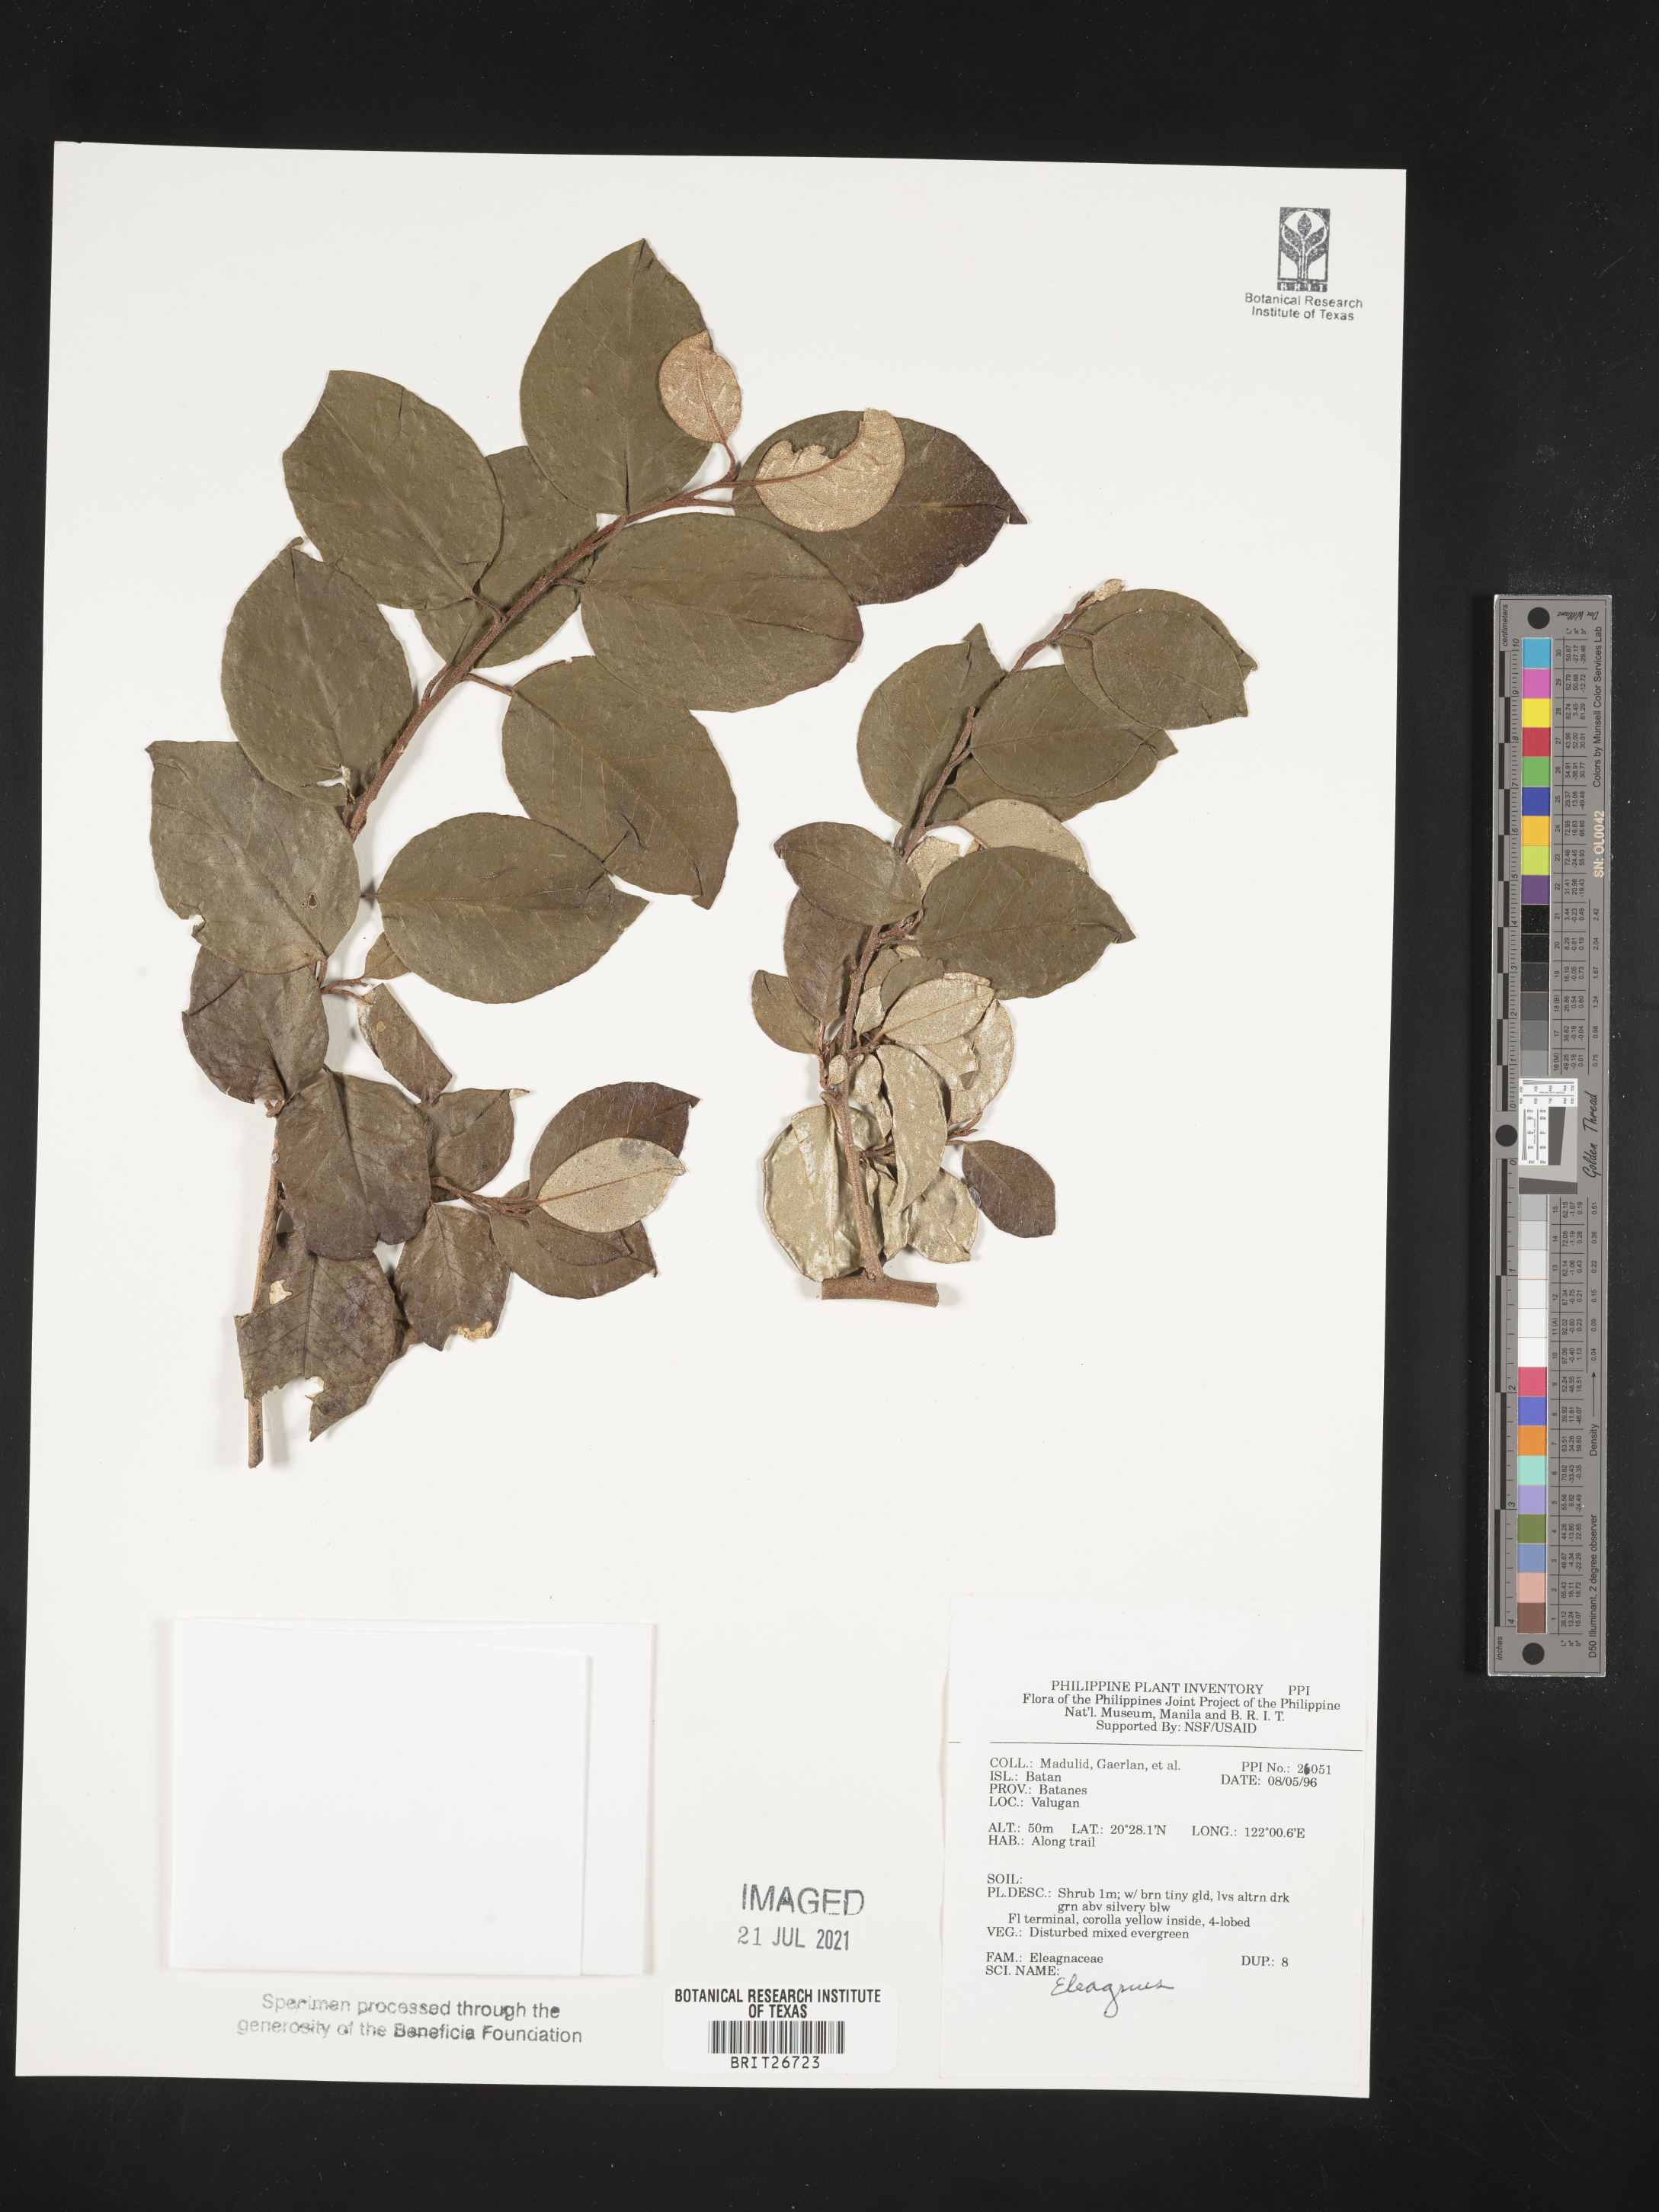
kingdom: Plantae
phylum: Tracheophyta
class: Magnoliopsida
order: Rosales
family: Elaeagnaceae
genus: Elaeagnus
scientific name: Elaeagnus
